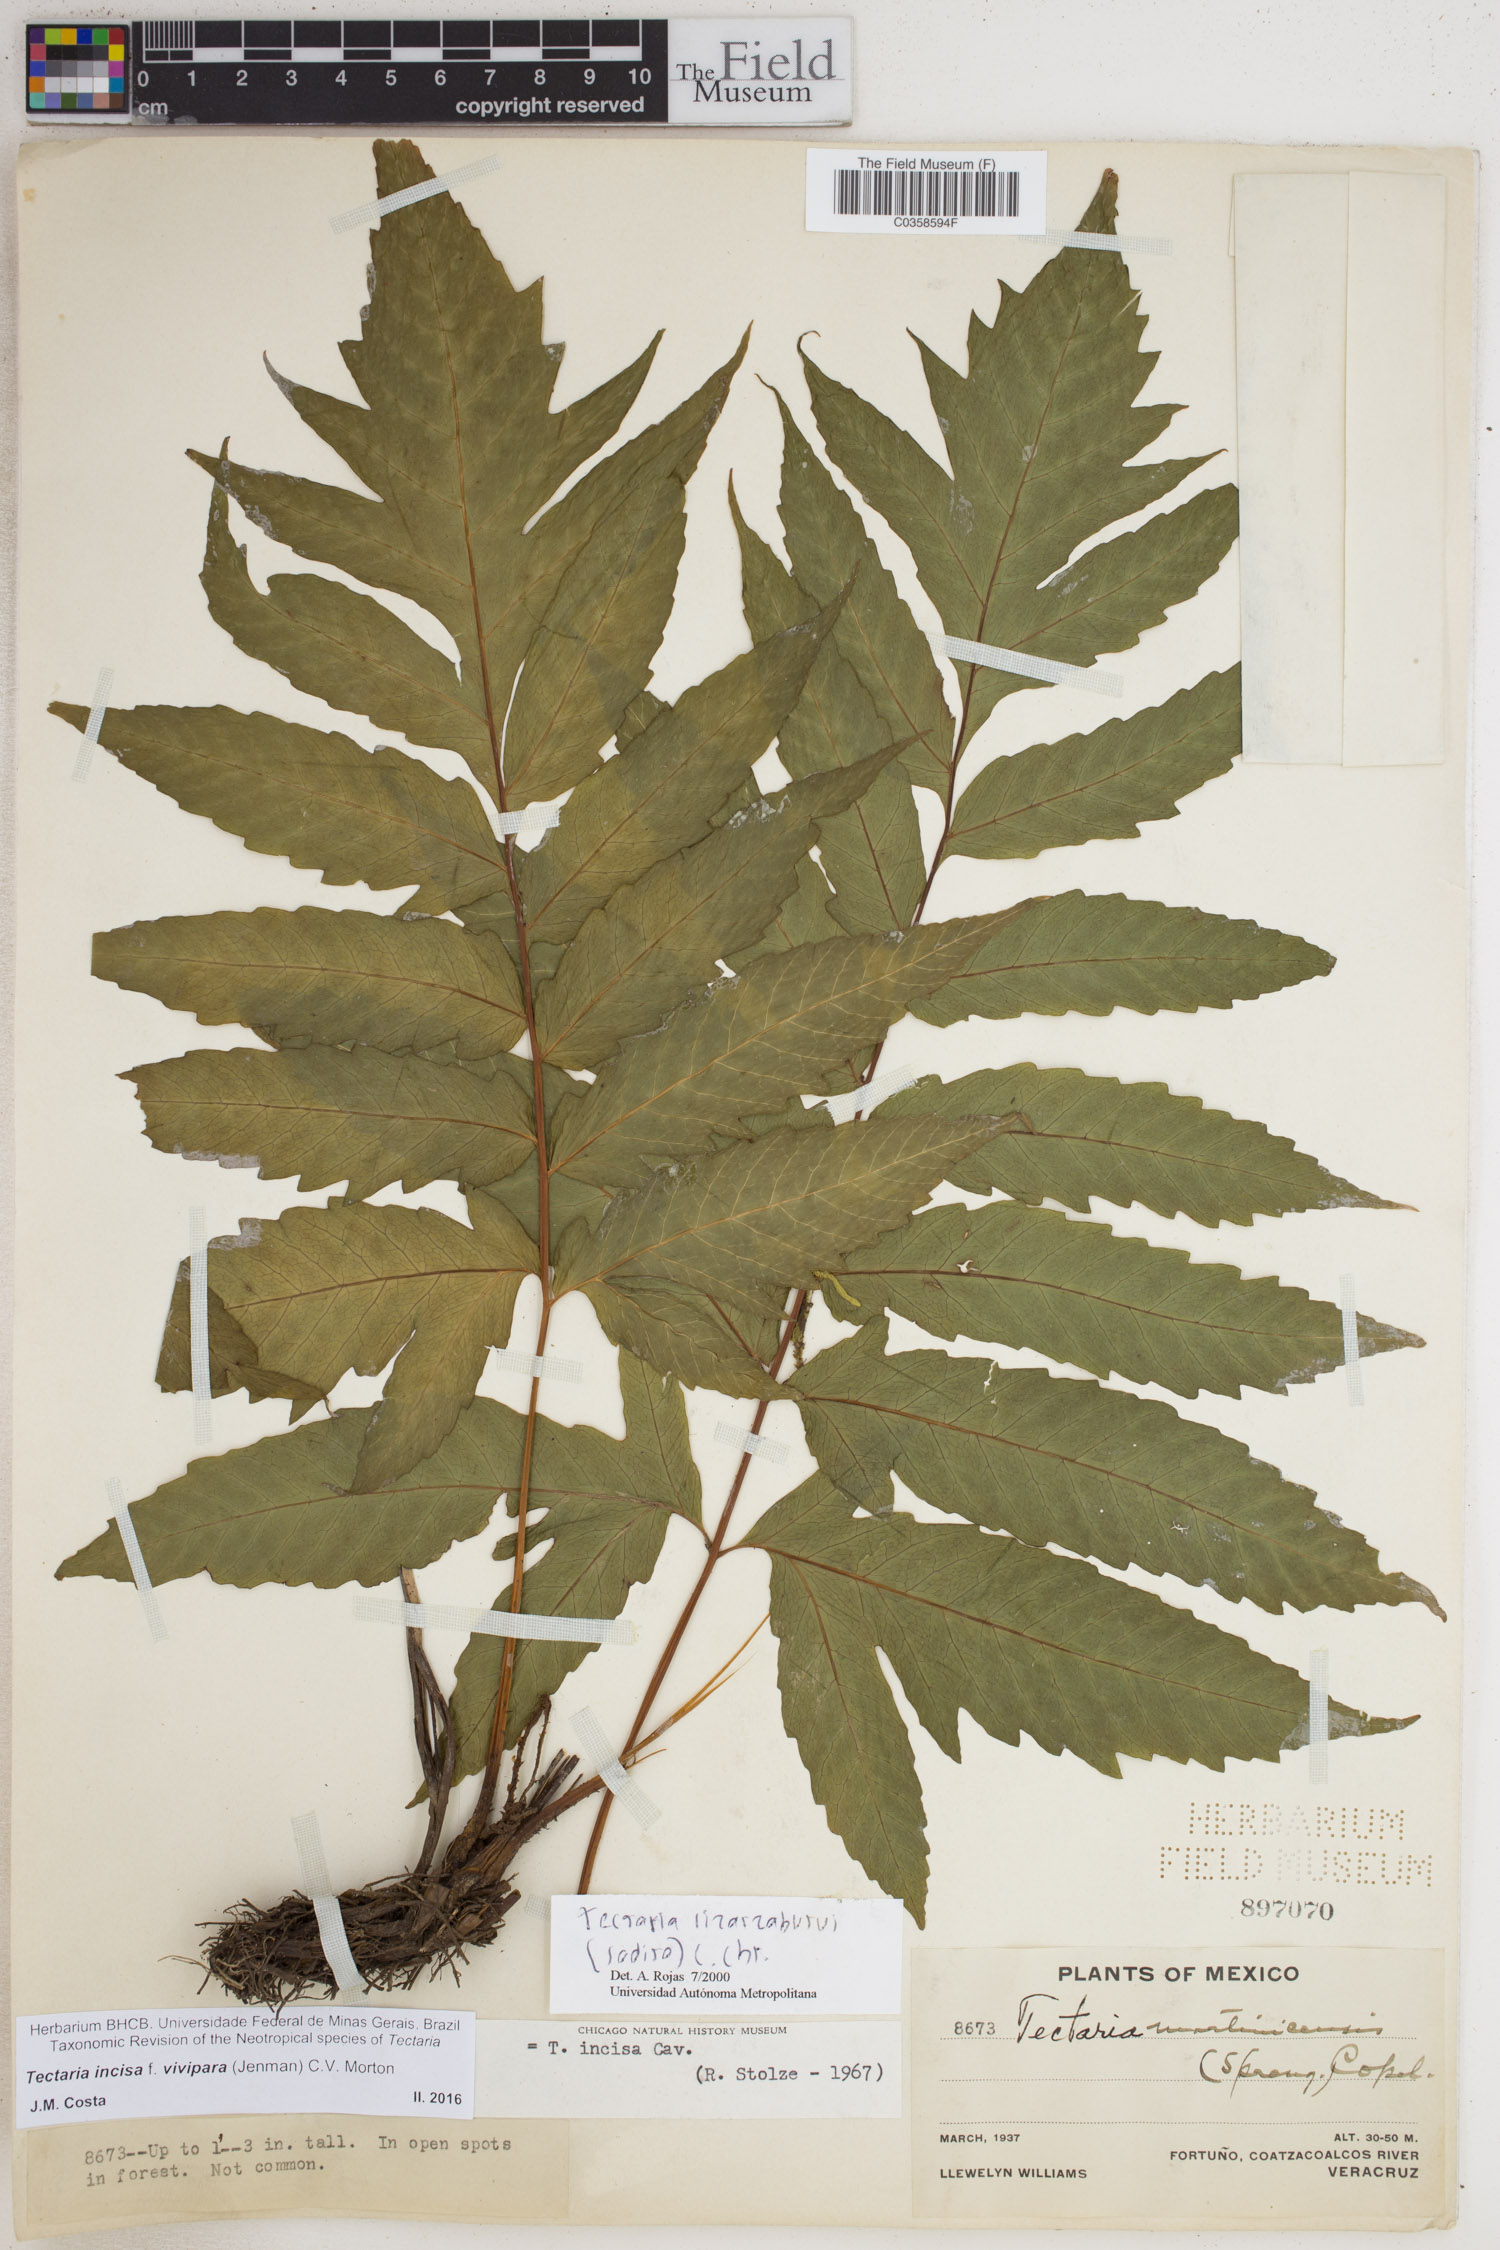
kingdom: Plantae
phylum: Tracheophyta
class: Polypodiopsida
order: Polypodiales
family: Tectariaceae
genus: Tectaria
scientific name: Tectaria incisa
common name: Incised halberd fern
